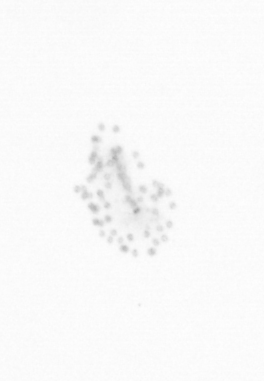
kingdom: Chromista
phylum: Ochrophyta
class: Bacillariophyceae
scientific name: Bacillariophyceae
